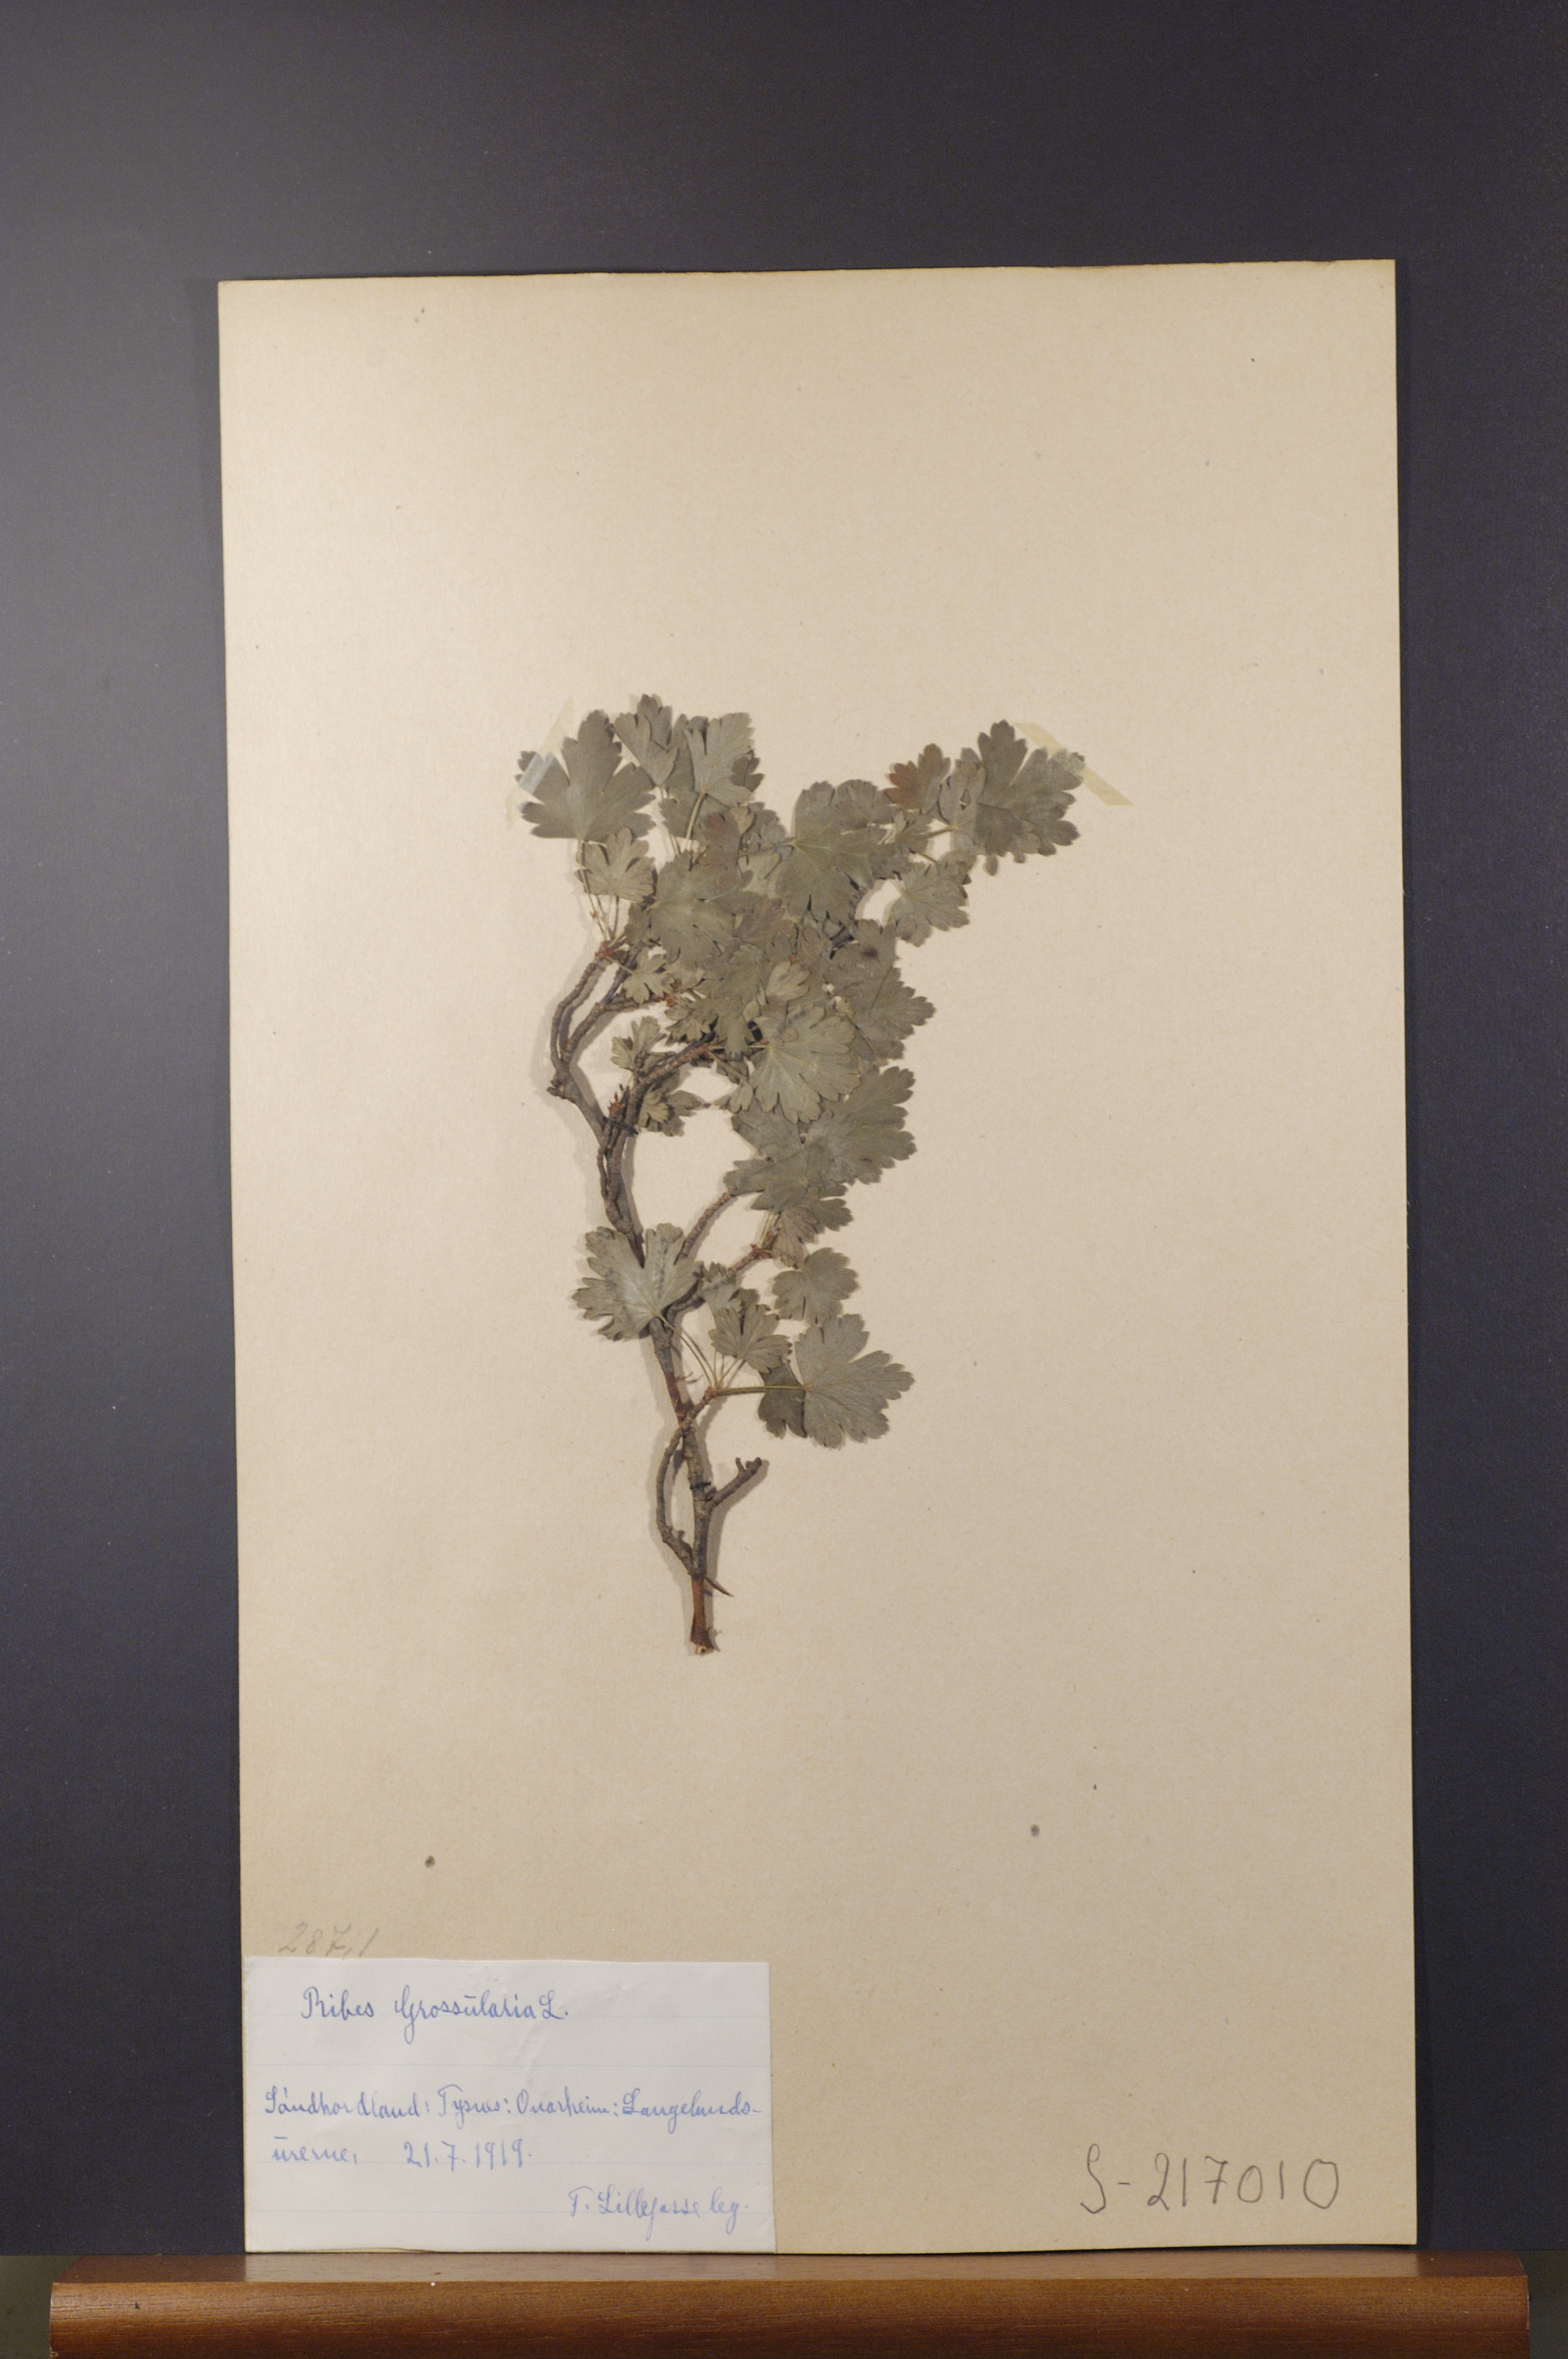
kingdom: Plantae
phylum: Tracheophyta
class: Magnoliopsida
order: Saxifragales
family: Grossulariaceae
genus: Ribes
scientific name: Ribes uva-crispa
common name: Gooseberry
